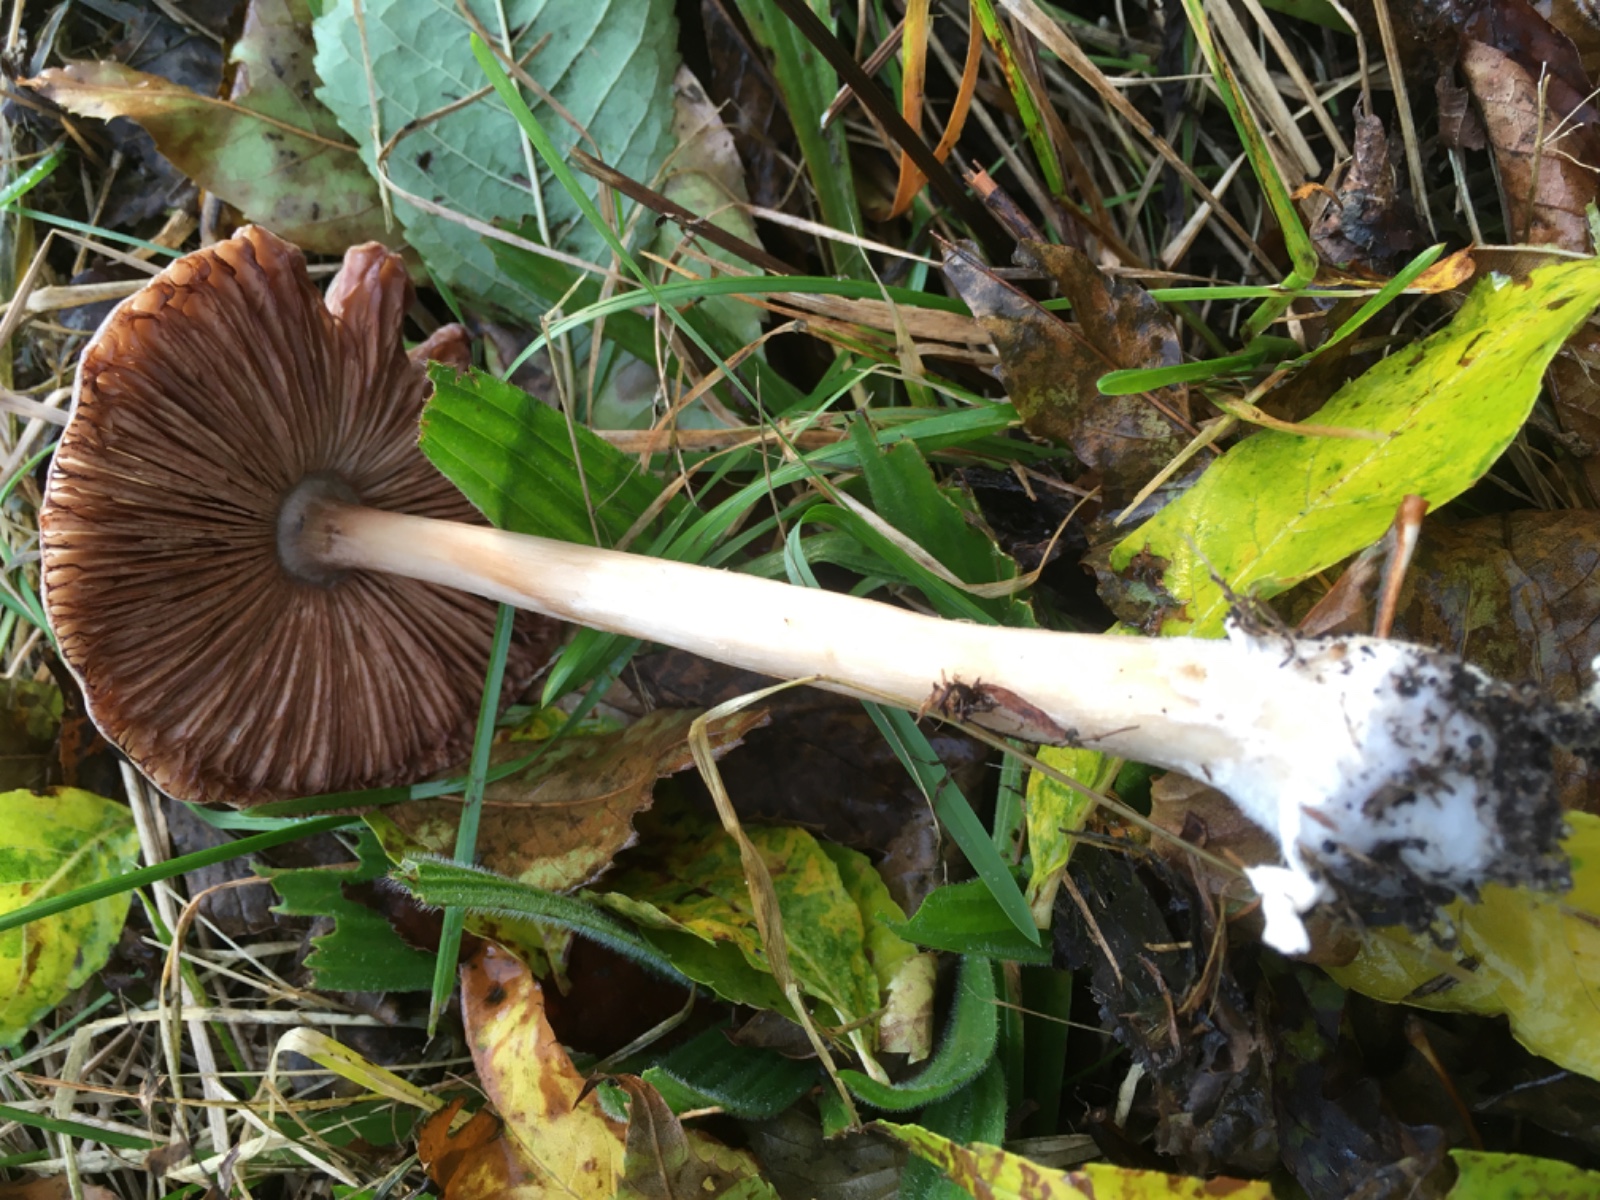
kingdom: Fungi
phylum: Basidiomycota
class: Agaricomycetes
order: Agaricales
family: Pluteaceae
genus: Volvopluteus
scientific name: Volvopluteus gloiocephalus
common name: høj posesvamp
